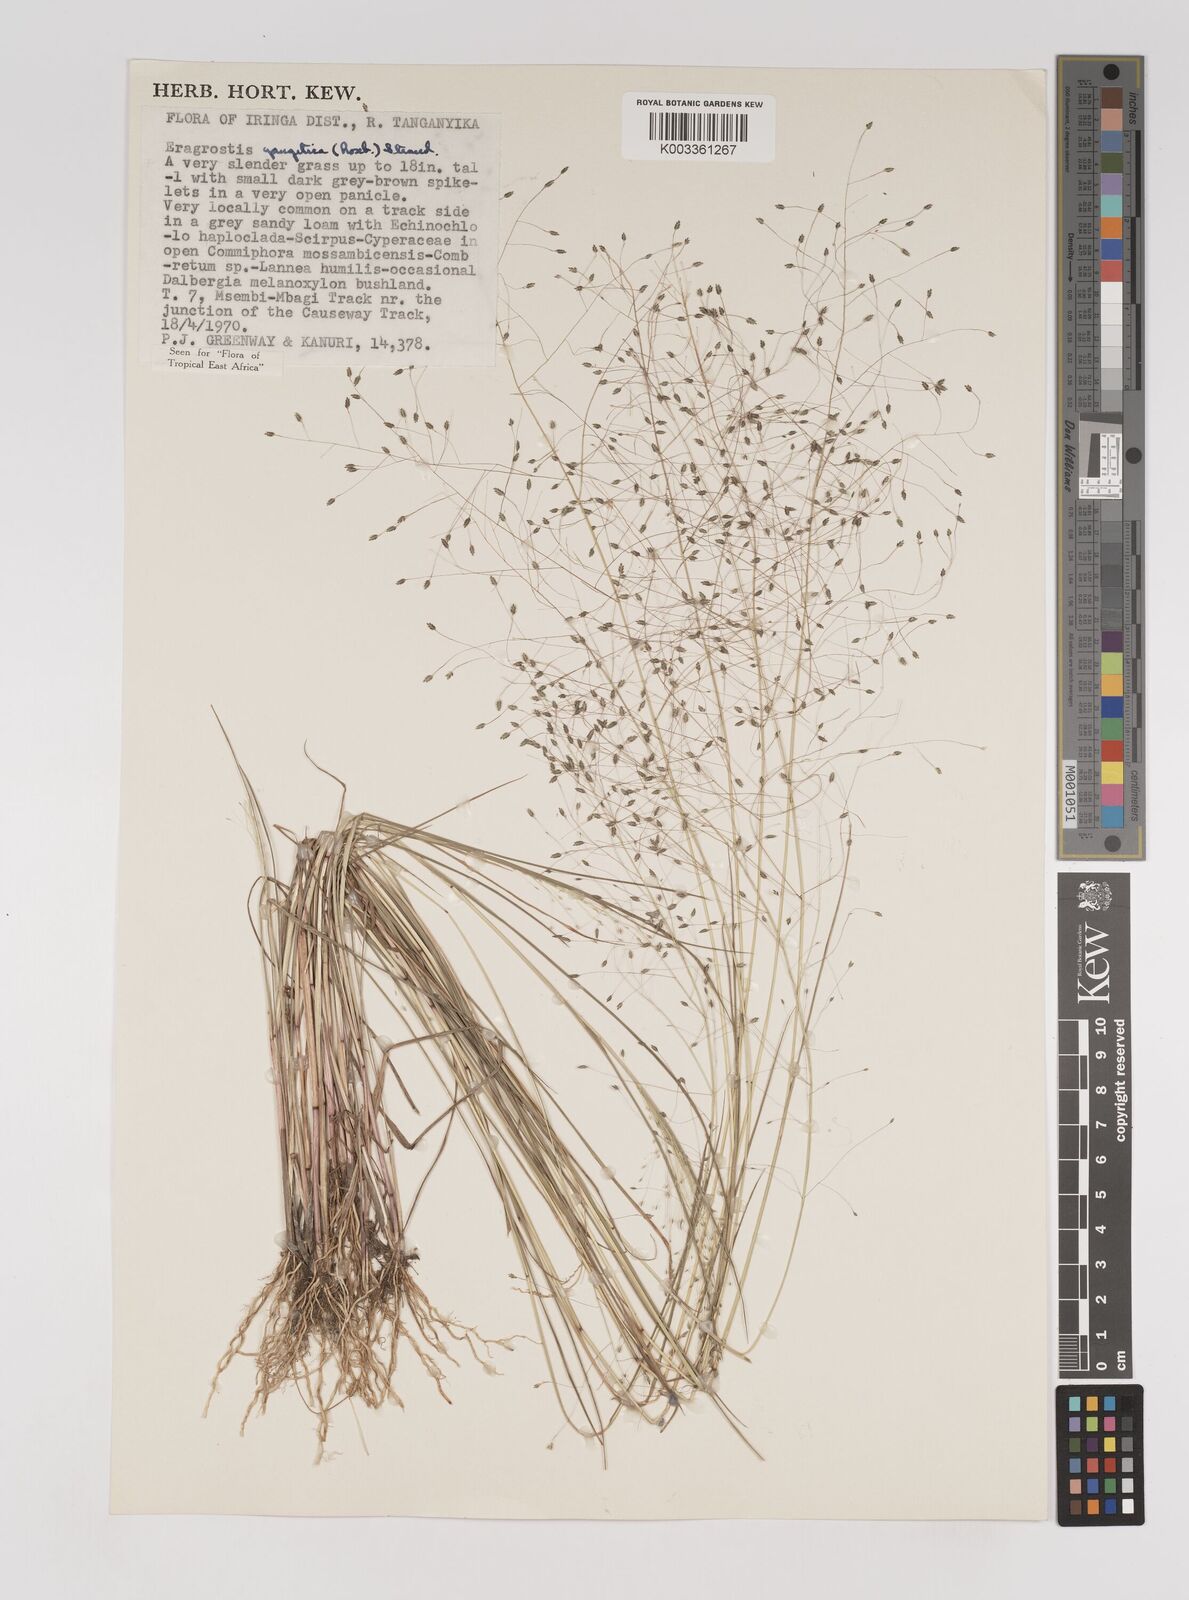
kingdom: Plantae
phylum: Tracheophyta
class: Liliopsida
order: Poales
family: Poaceae
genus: Eragrostis
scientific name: Eragrostis gangetica
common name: Slimflower lovegrass
